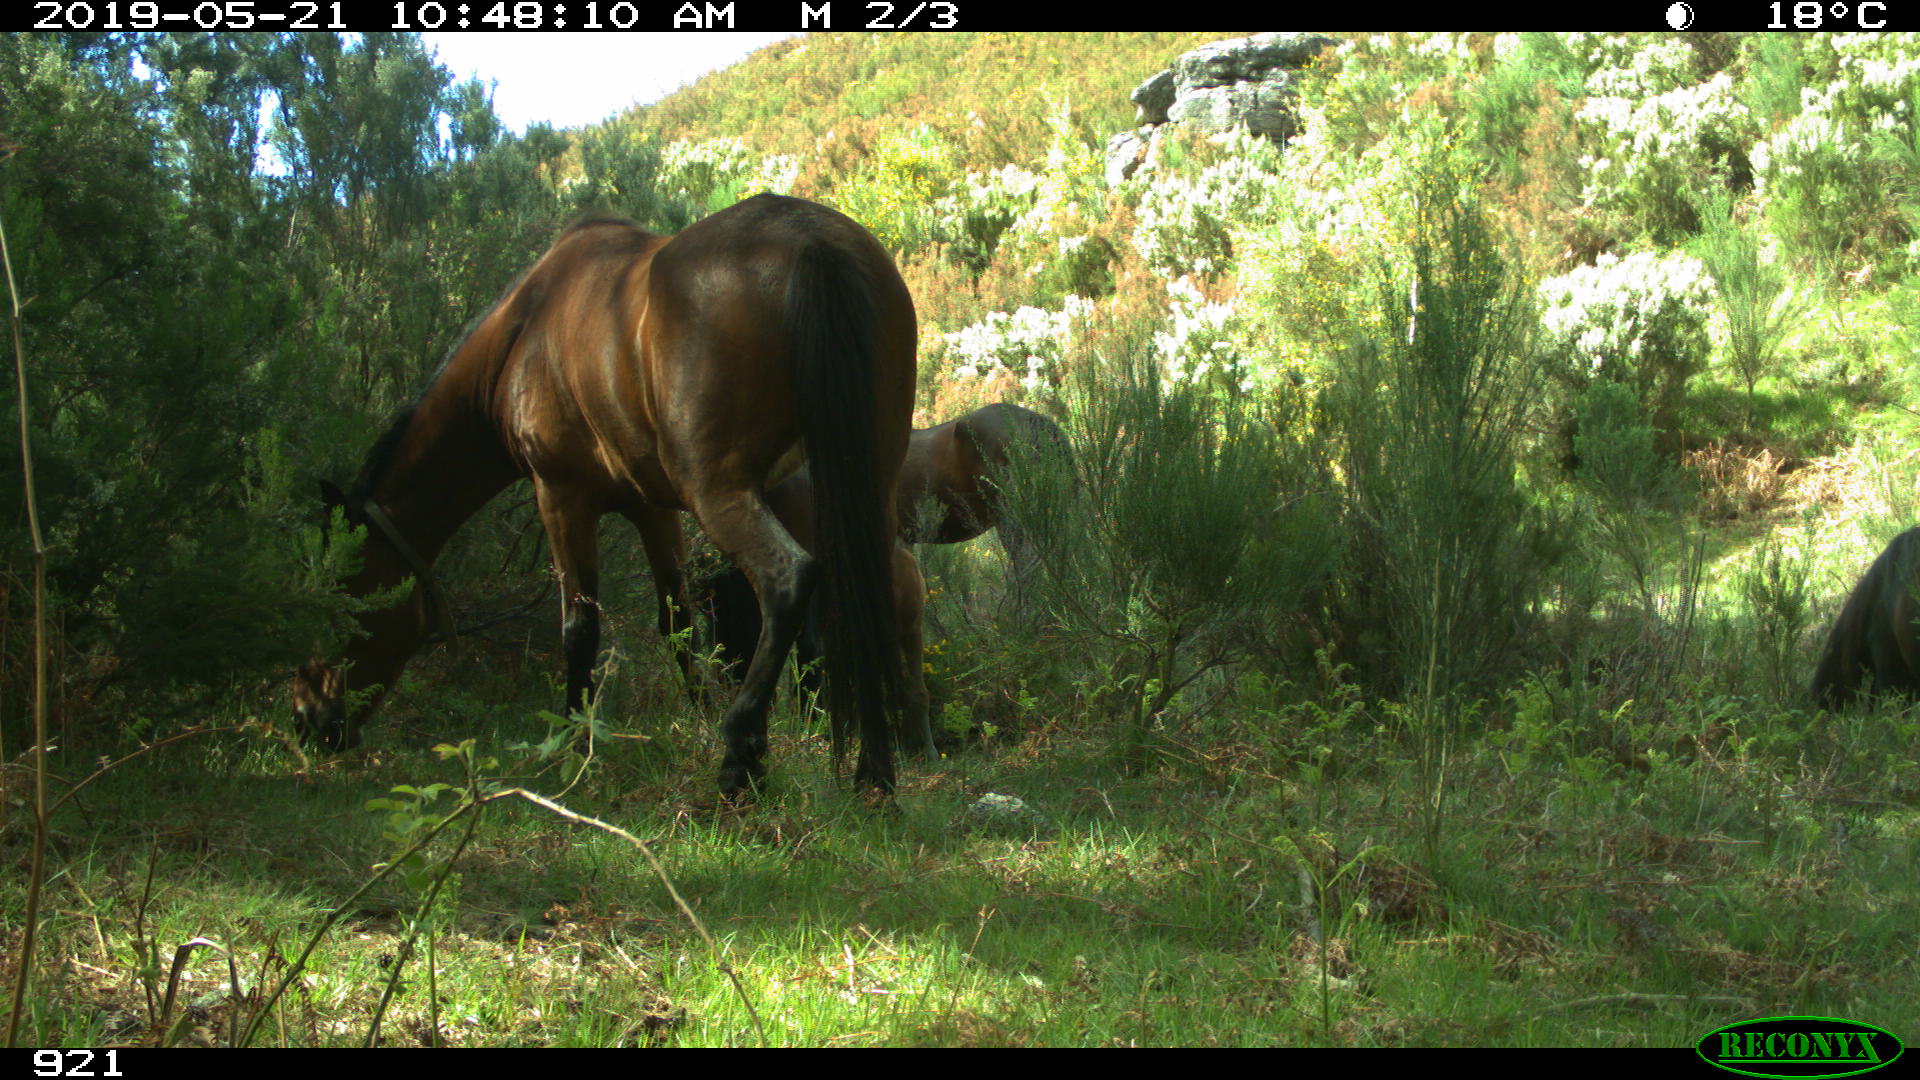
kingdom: Animalia
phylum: Chordata
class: Mammalia
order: Perissodactyla
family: Equidae
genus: Equus
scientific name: Equus caballus
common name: Horse
